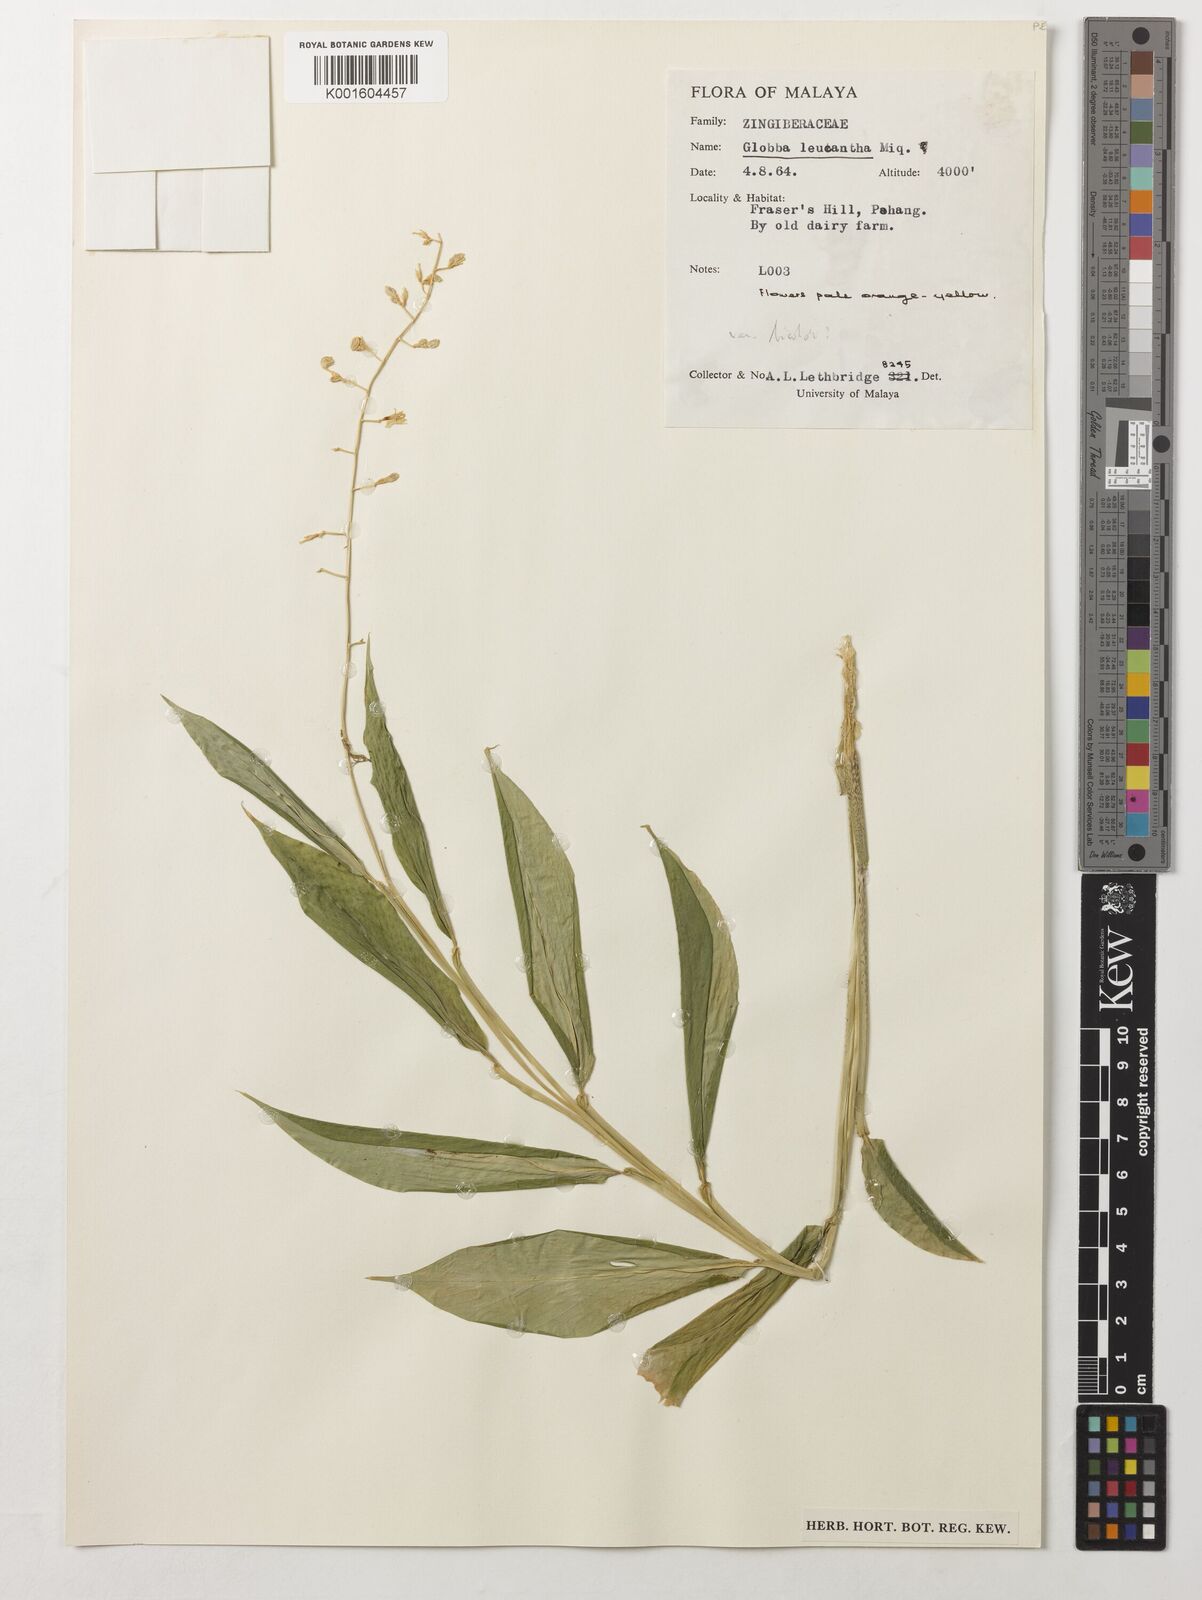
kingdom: Plantae
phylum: Tracheophyta
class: Liliopsida
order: Zingiberales
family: Zingiberaceae
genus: Globba
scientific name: Globba leucantha
